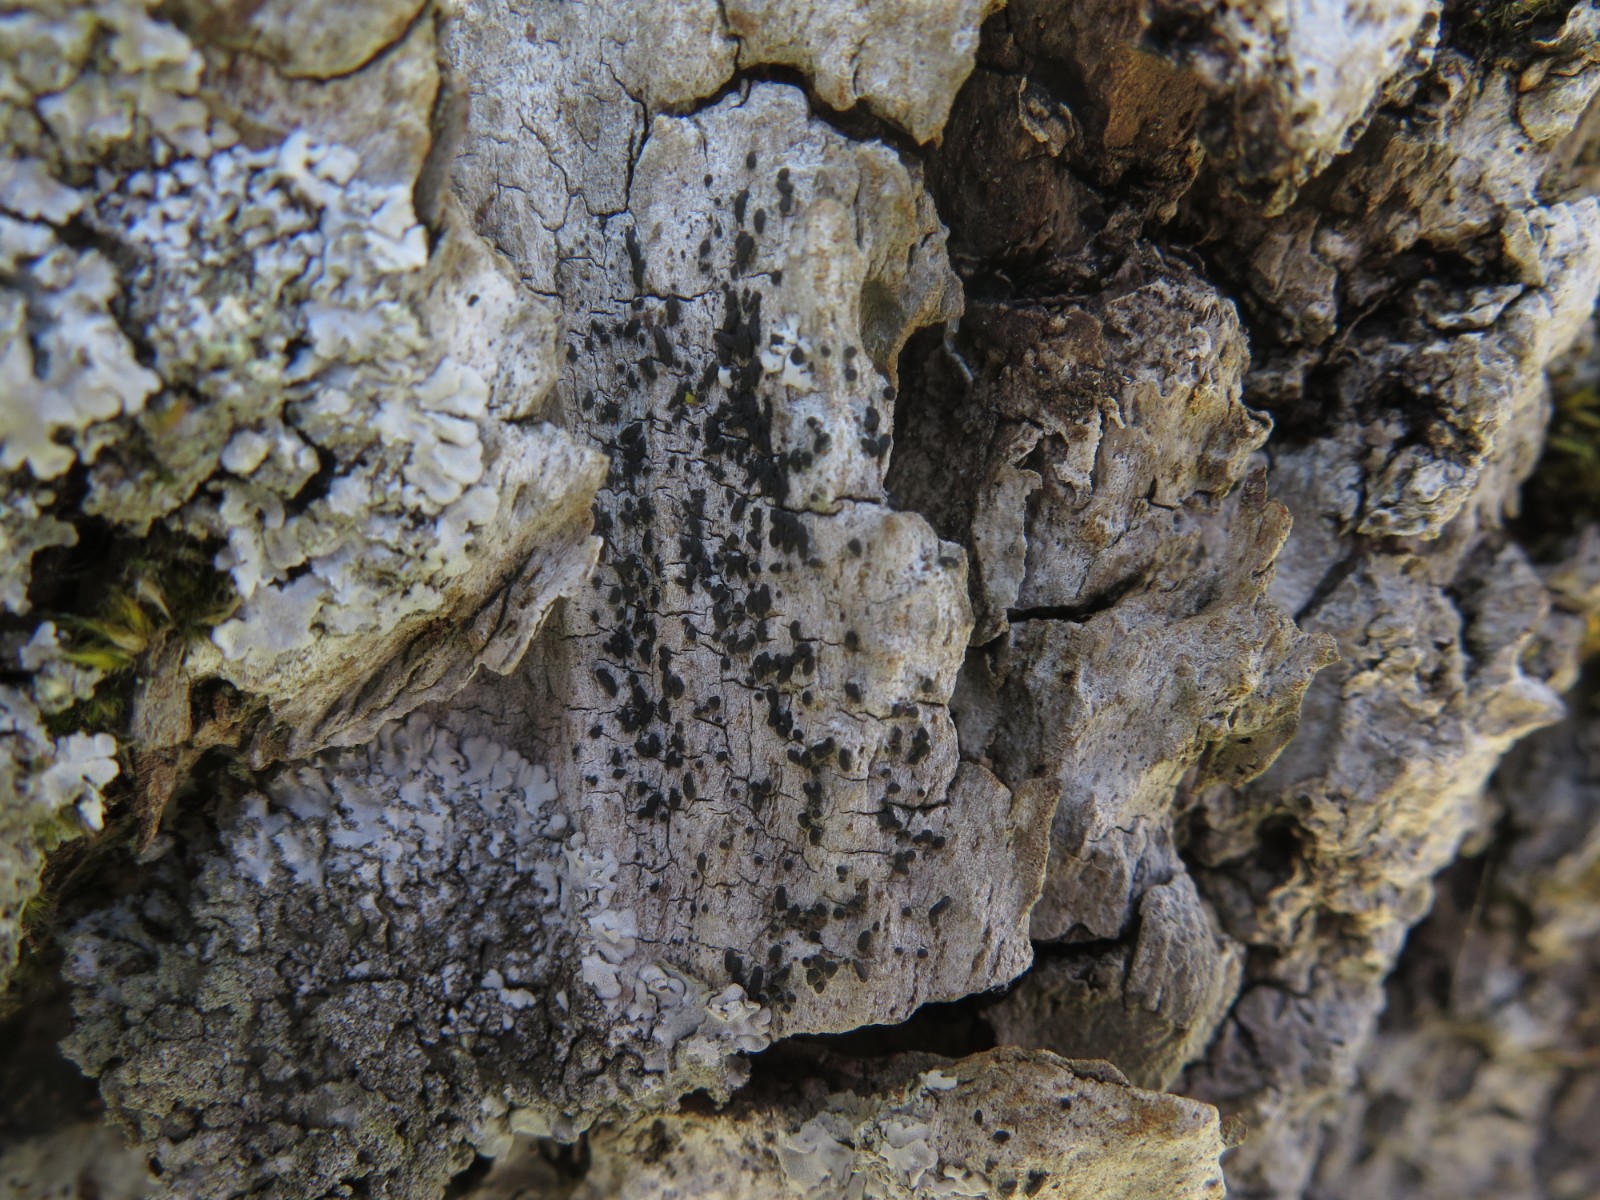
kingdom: Fungi
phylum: Ascomycota
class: Dothideomycetes
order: Hysteriales
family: Hysteriaceae
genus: Hysterium
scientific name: Hysterium pulicare
